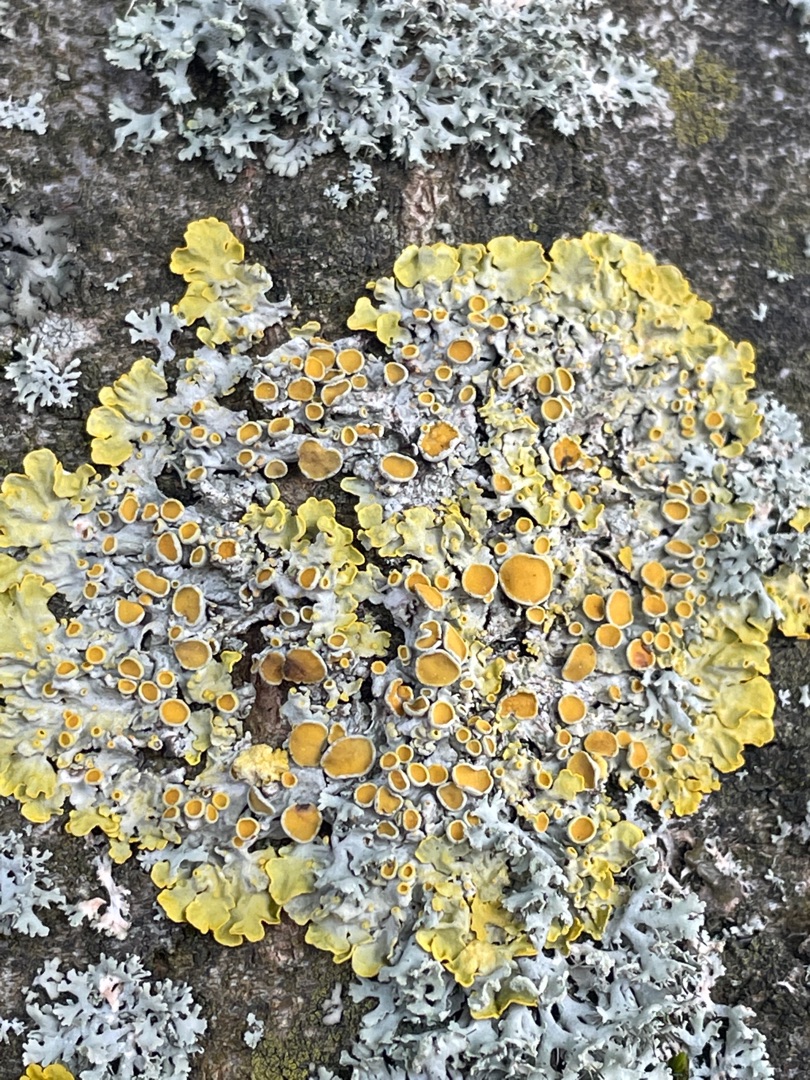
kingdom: Fungi
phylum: Ascomycota
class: Lecanoromycetes
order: Teloschistales
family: Teloschistaceae
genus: Xanthoria
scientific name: Xanthoria parietina
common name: Almindelig væggelav
